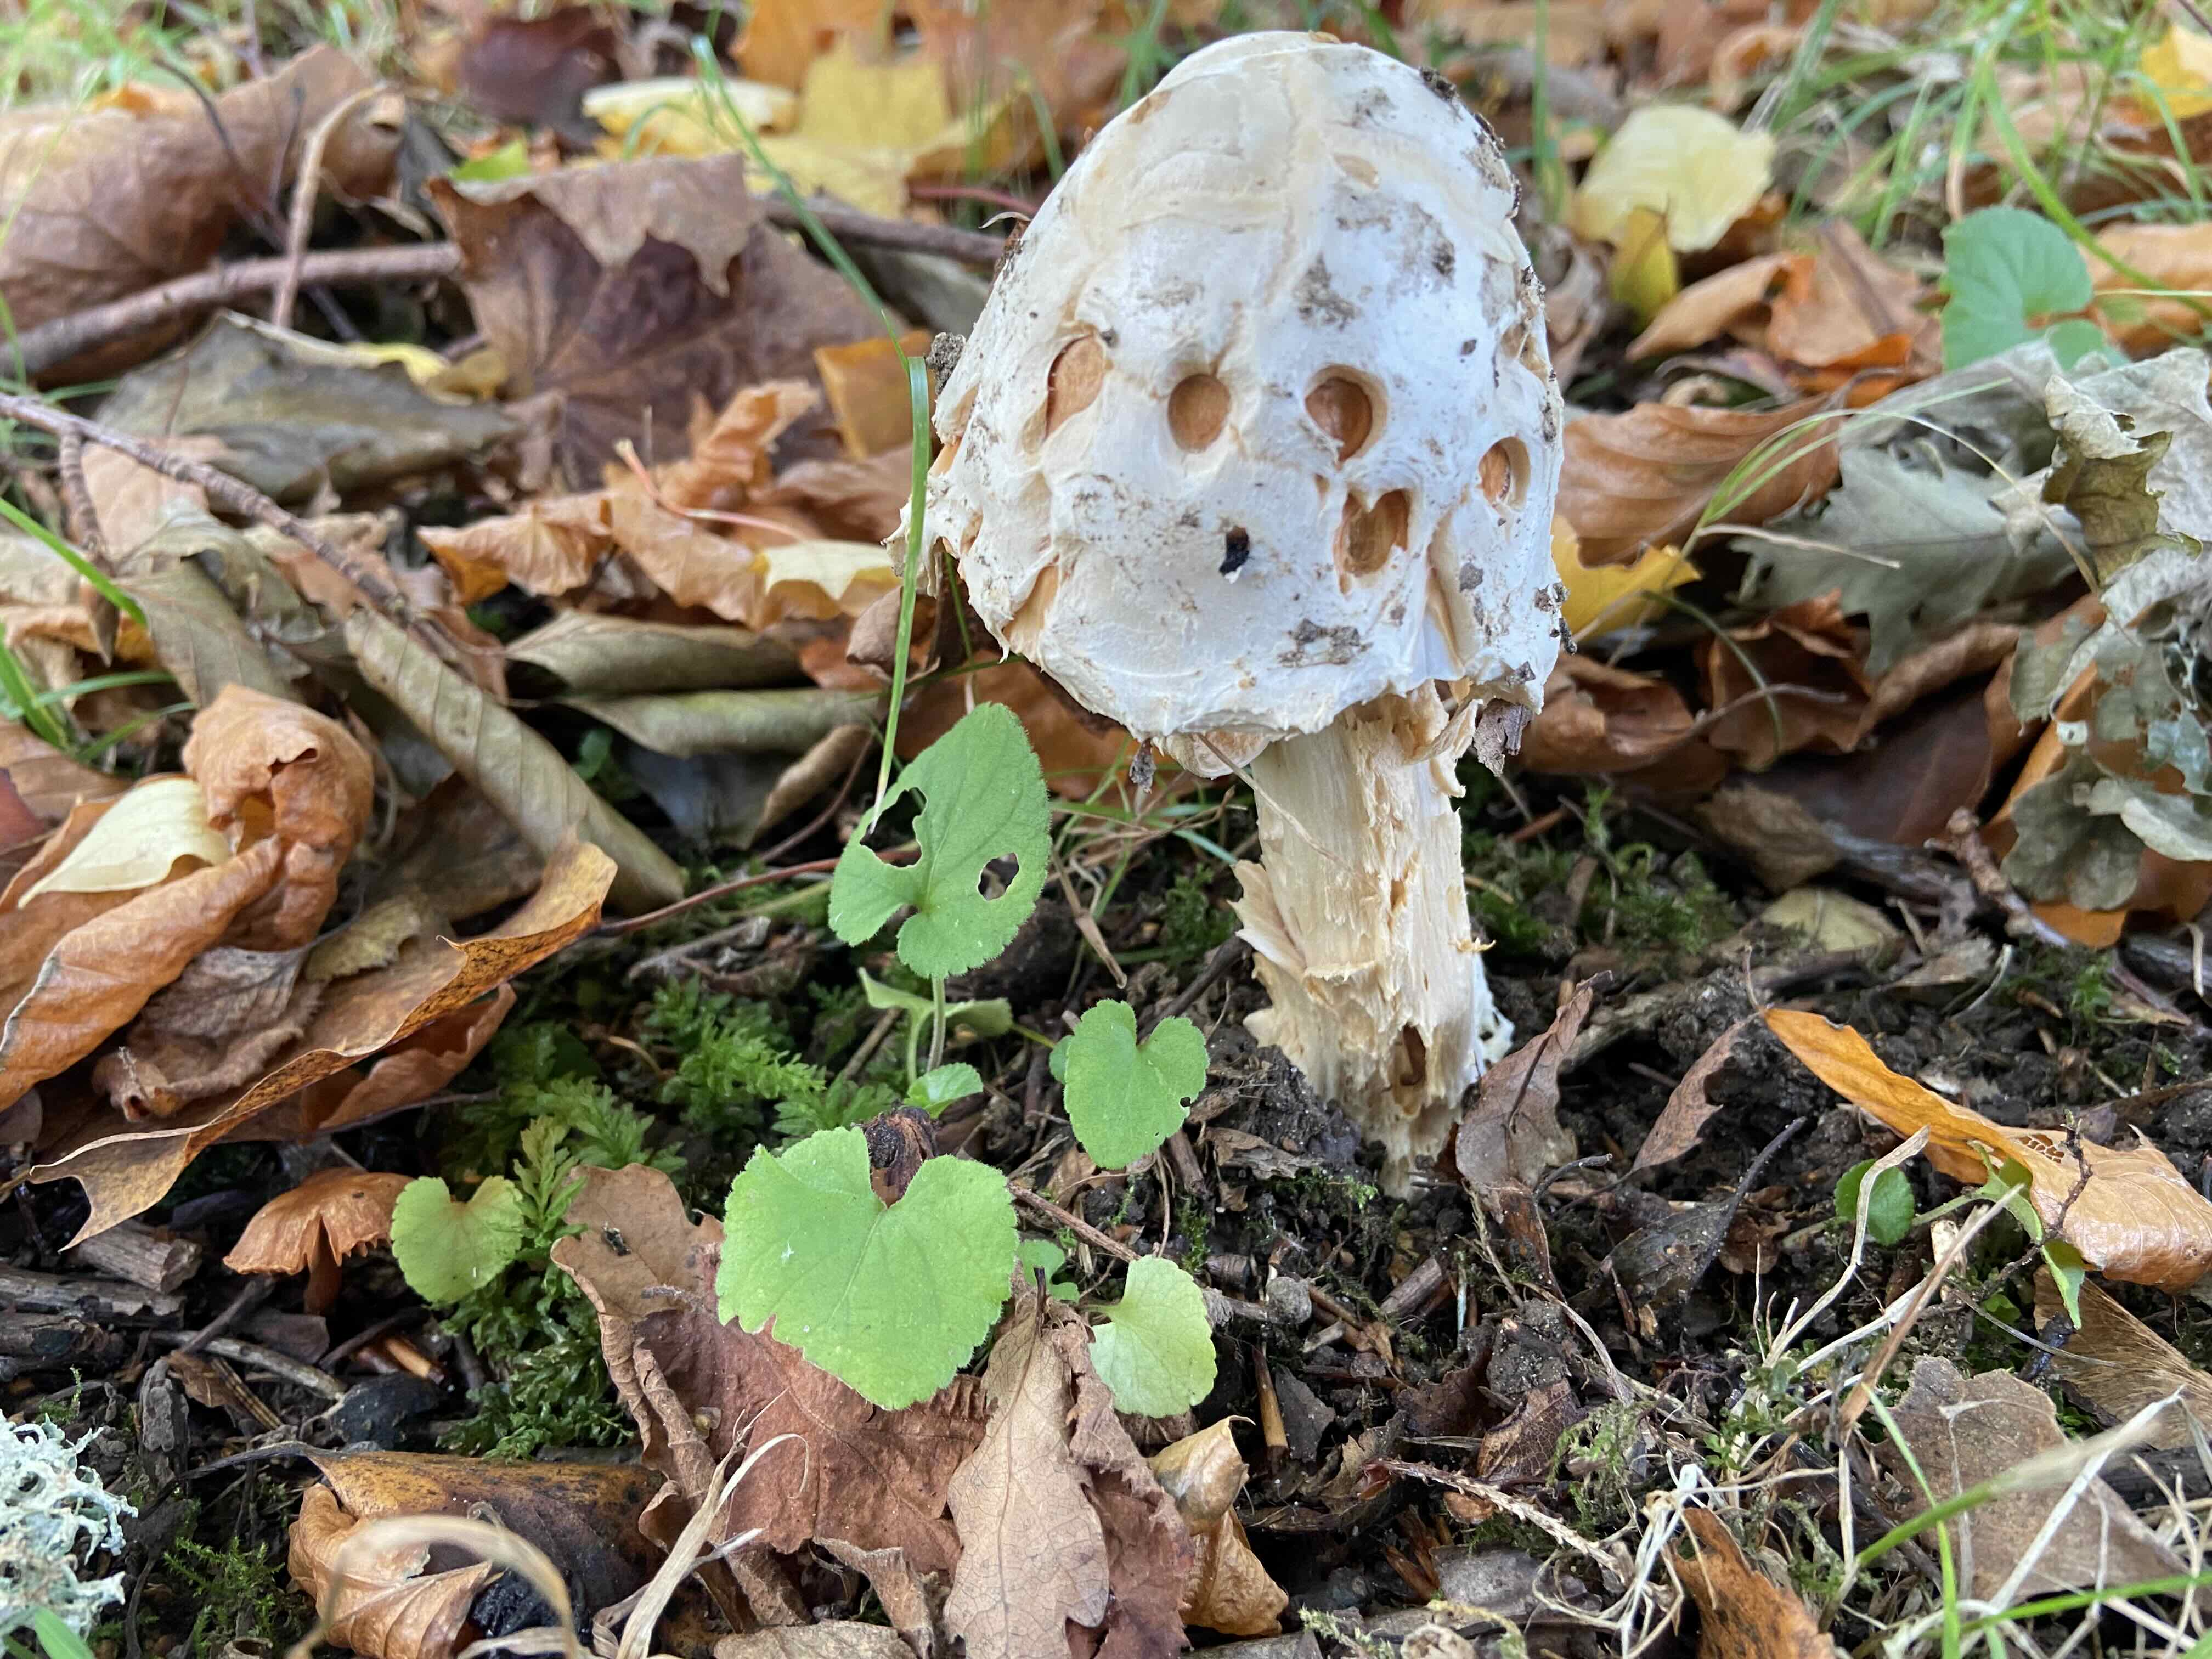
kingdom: Fungi
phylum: Basidiomycota
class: Agaricomycetes
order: Agaricales
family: Amanitaceae
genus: Amanita
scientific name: Amanita
